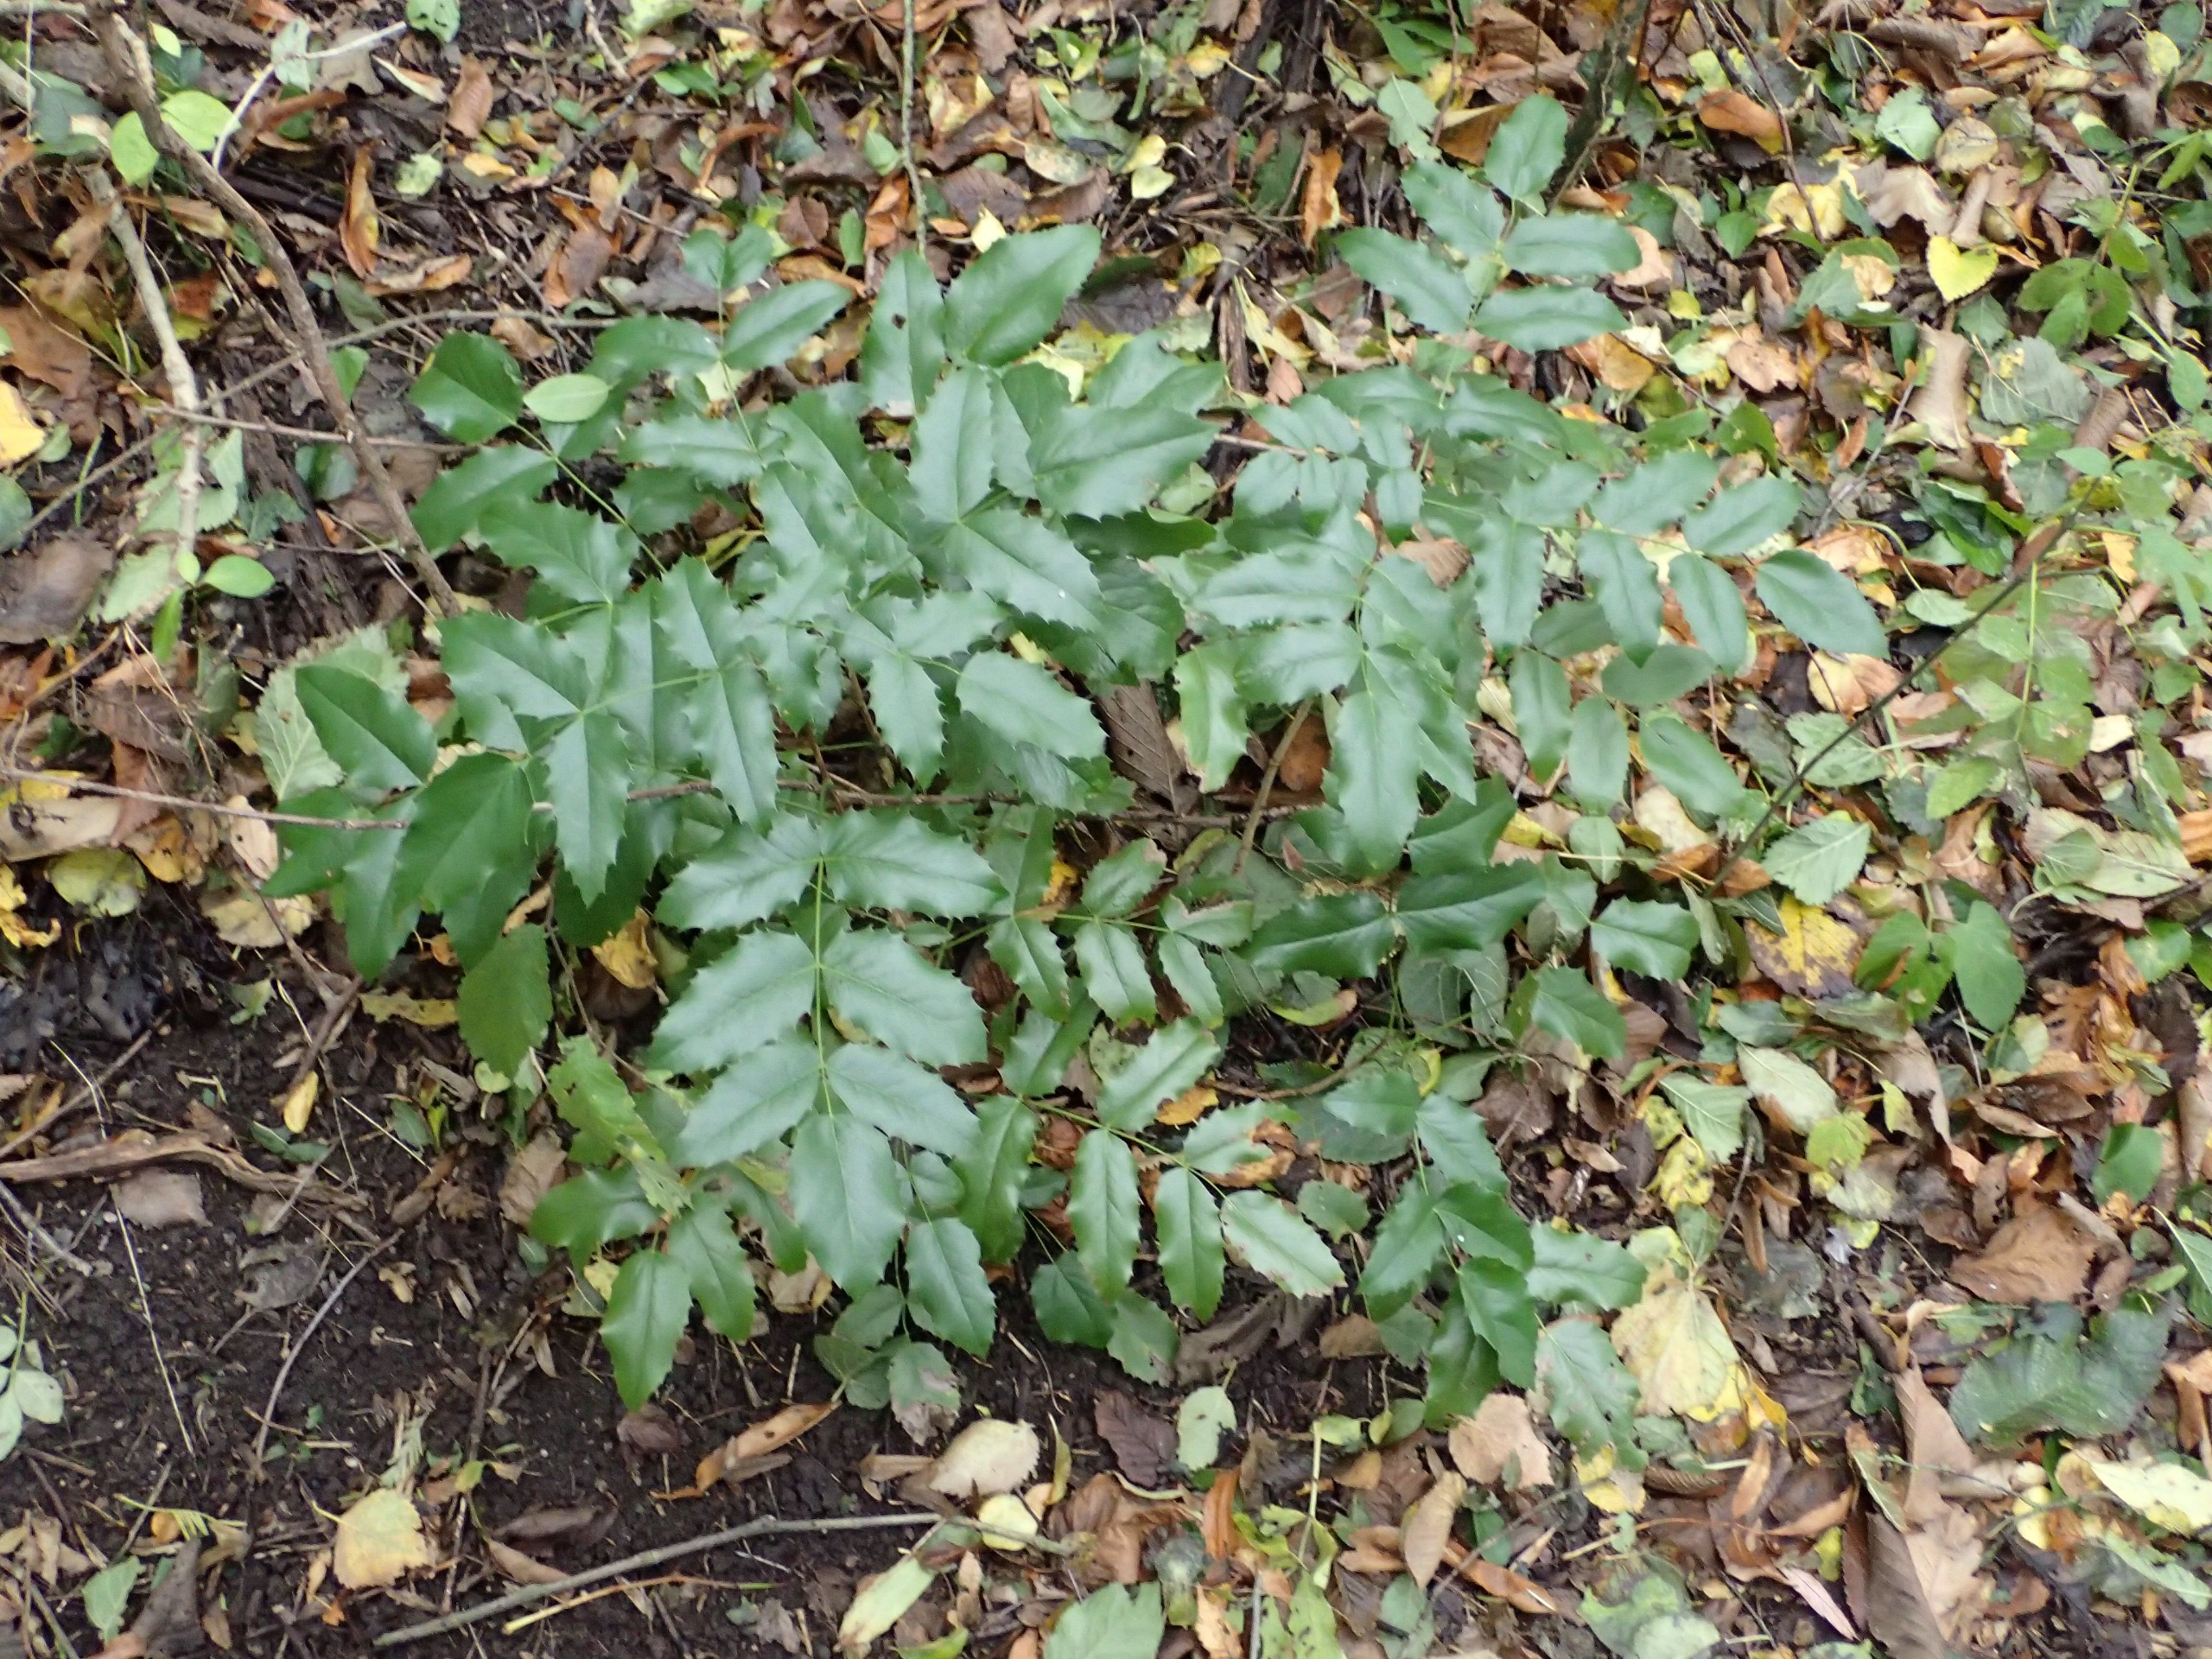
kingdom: Plantae
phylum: Tracheophyta
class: Magnoliopsida
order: Ranunculales
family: Berberidaceae
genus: Mahonia
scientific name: Mahonia aquifolium
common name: Almindelig mahonie
